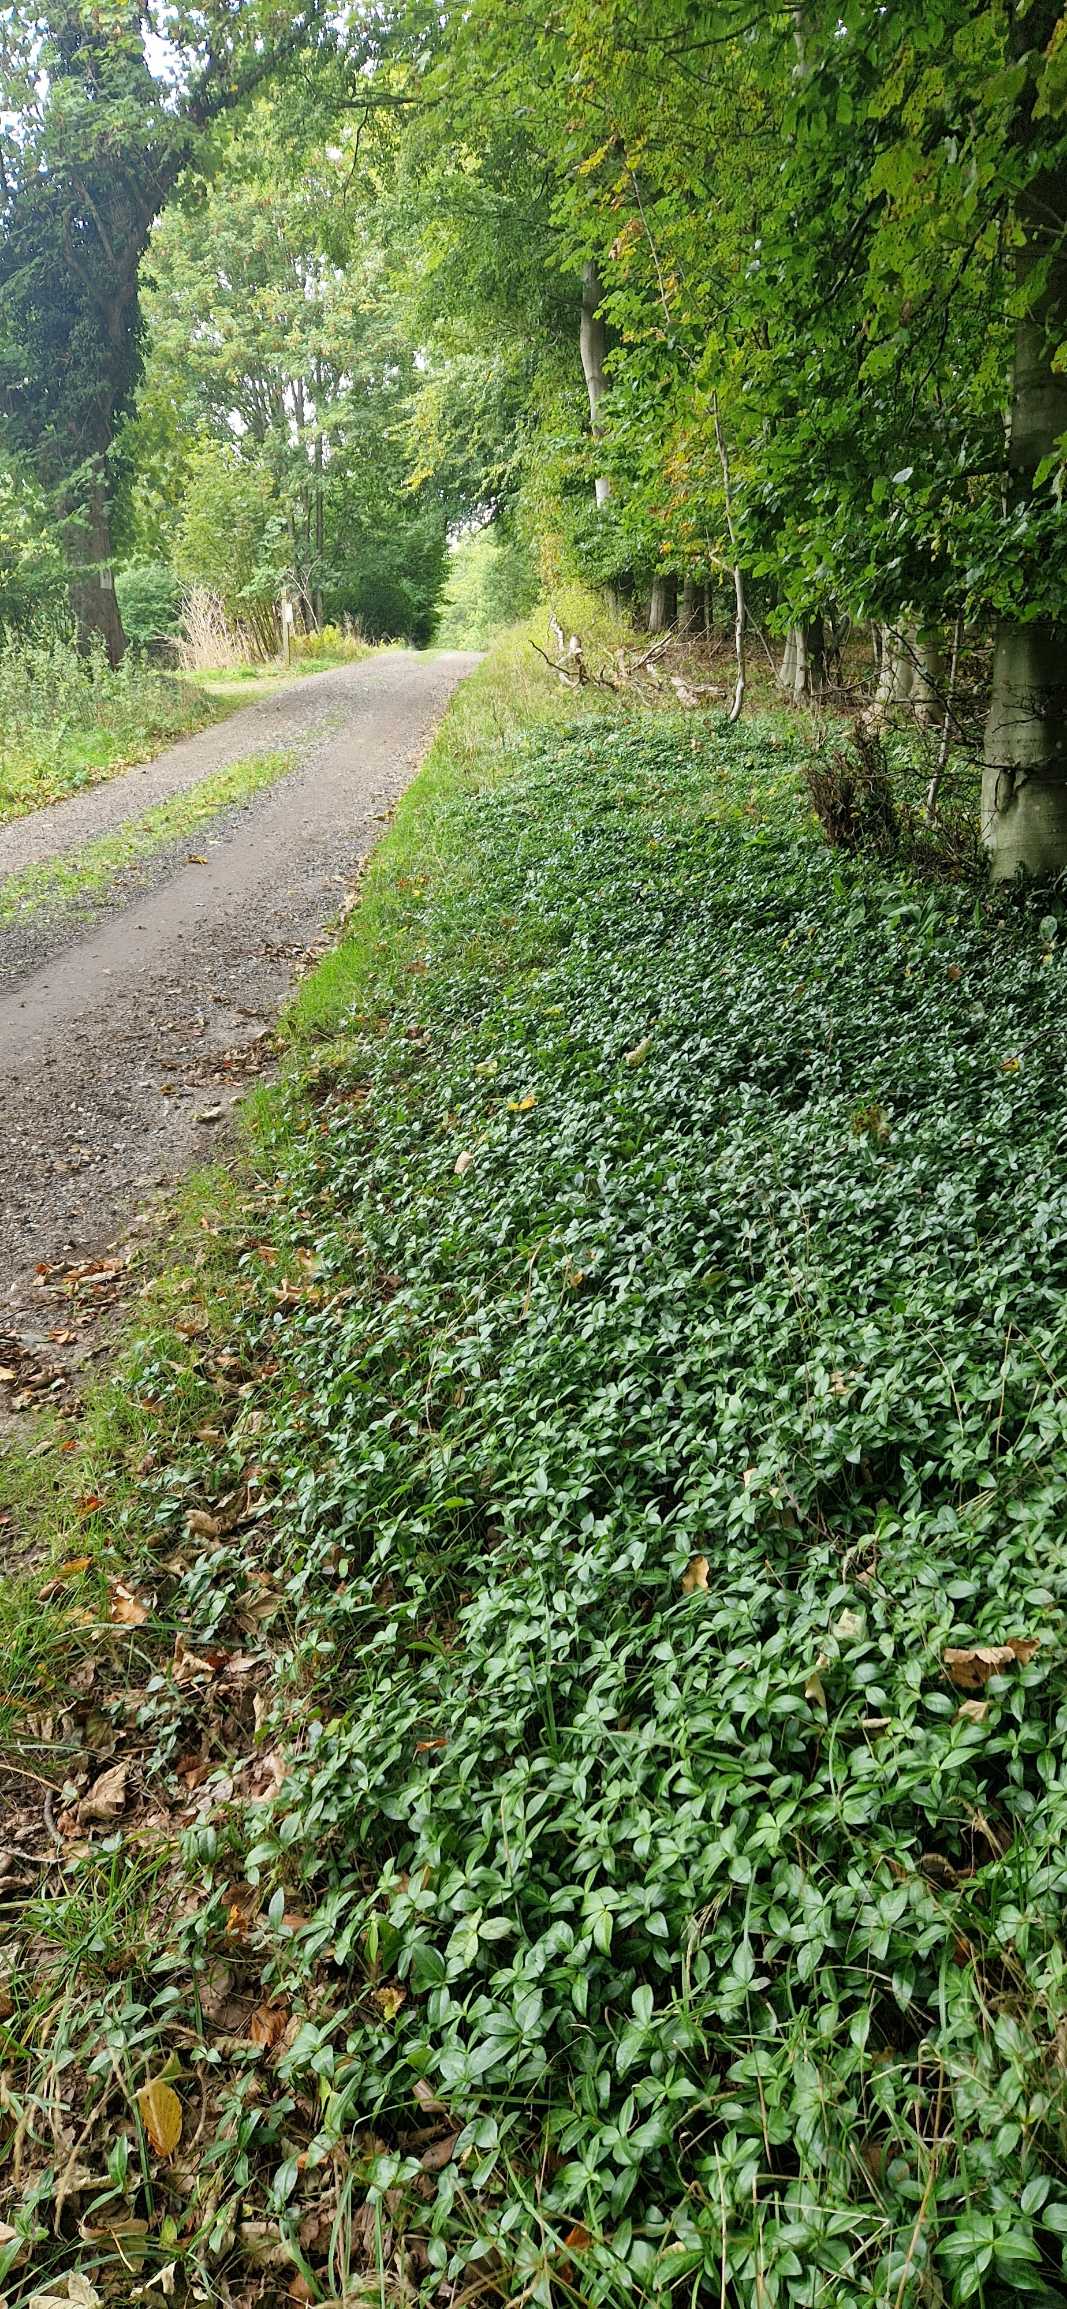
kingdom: Plantae
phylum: Tracheophyta
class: Magnoliopsida
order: Gentianales
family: Apocynaceae
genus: Vinca
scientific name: Vinca minor
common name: Liden singrøn
